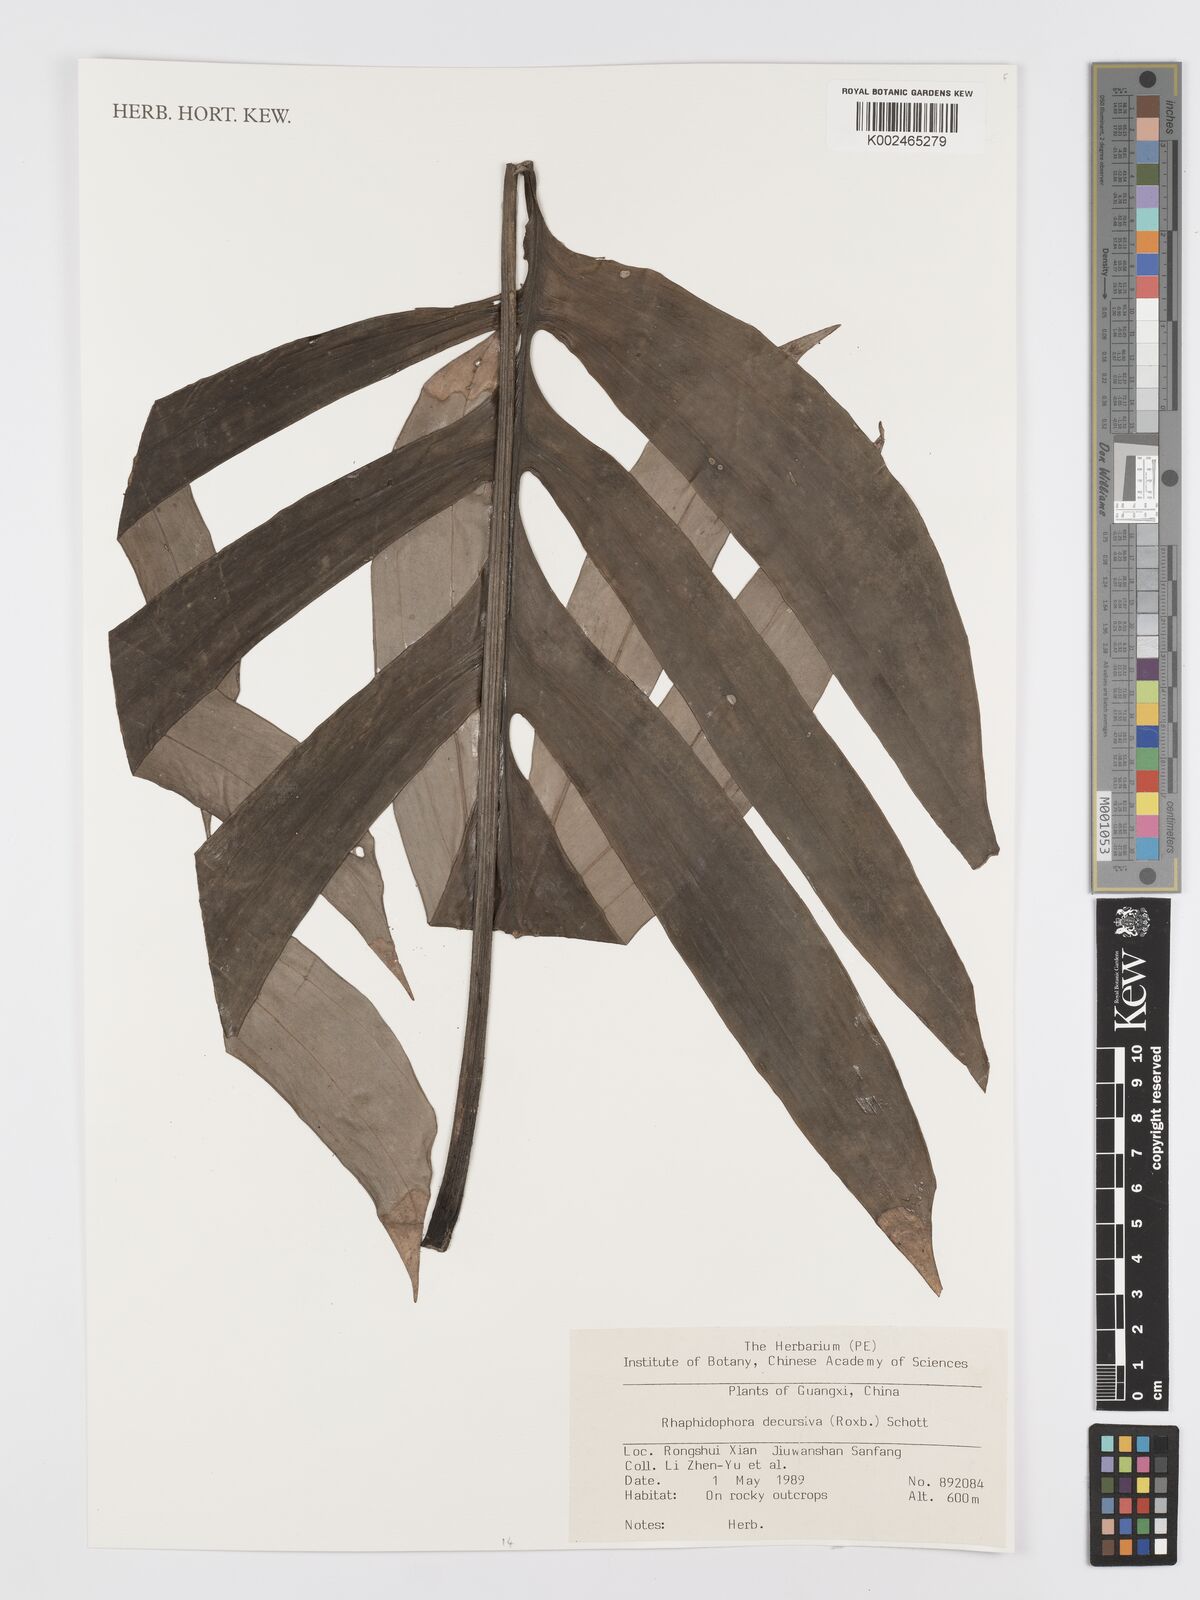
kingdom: Plantae
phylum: Tracheophyta
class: Liliopsida
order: Alismatales
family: Araceae
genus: Rhaphidophora
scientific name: Rhaphidophora decursiva
